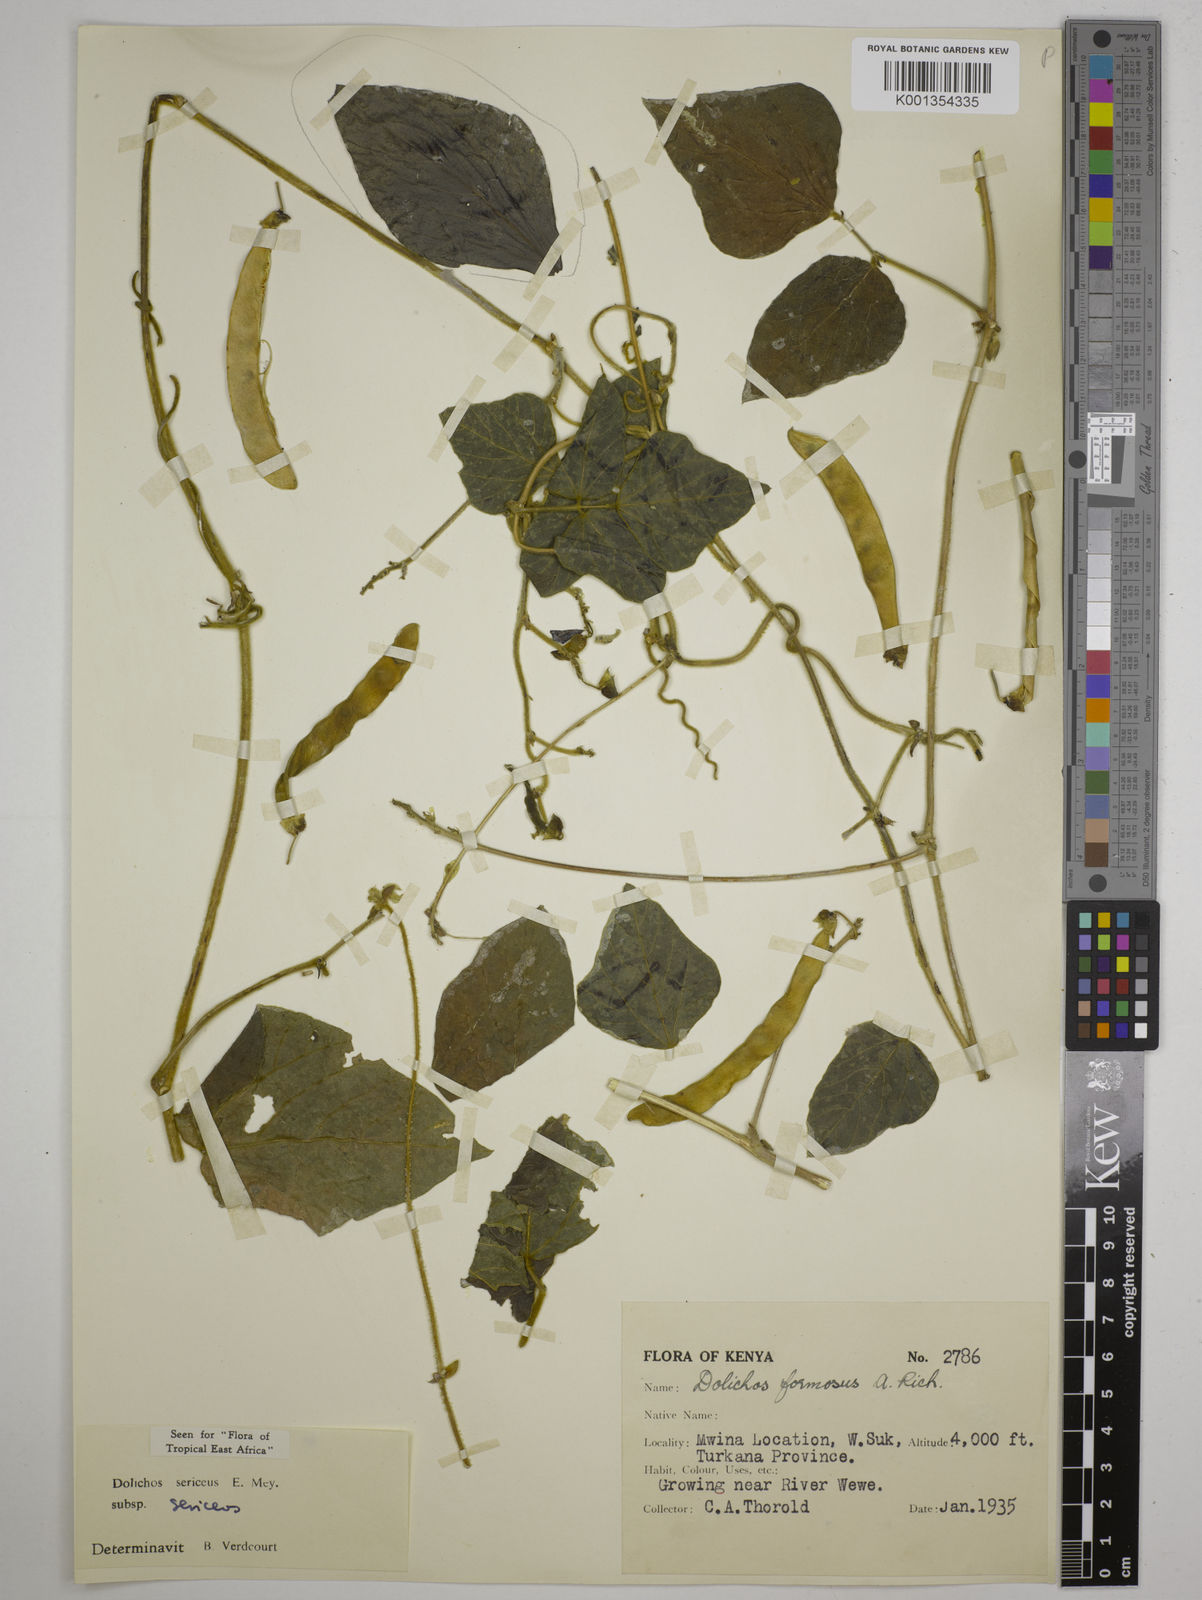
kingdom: Plantae
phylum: Tracheophyta
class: Magnoliopsida
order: Fabales
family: Fabaceae
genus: Dolichos
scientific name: Dolichos sericeus
